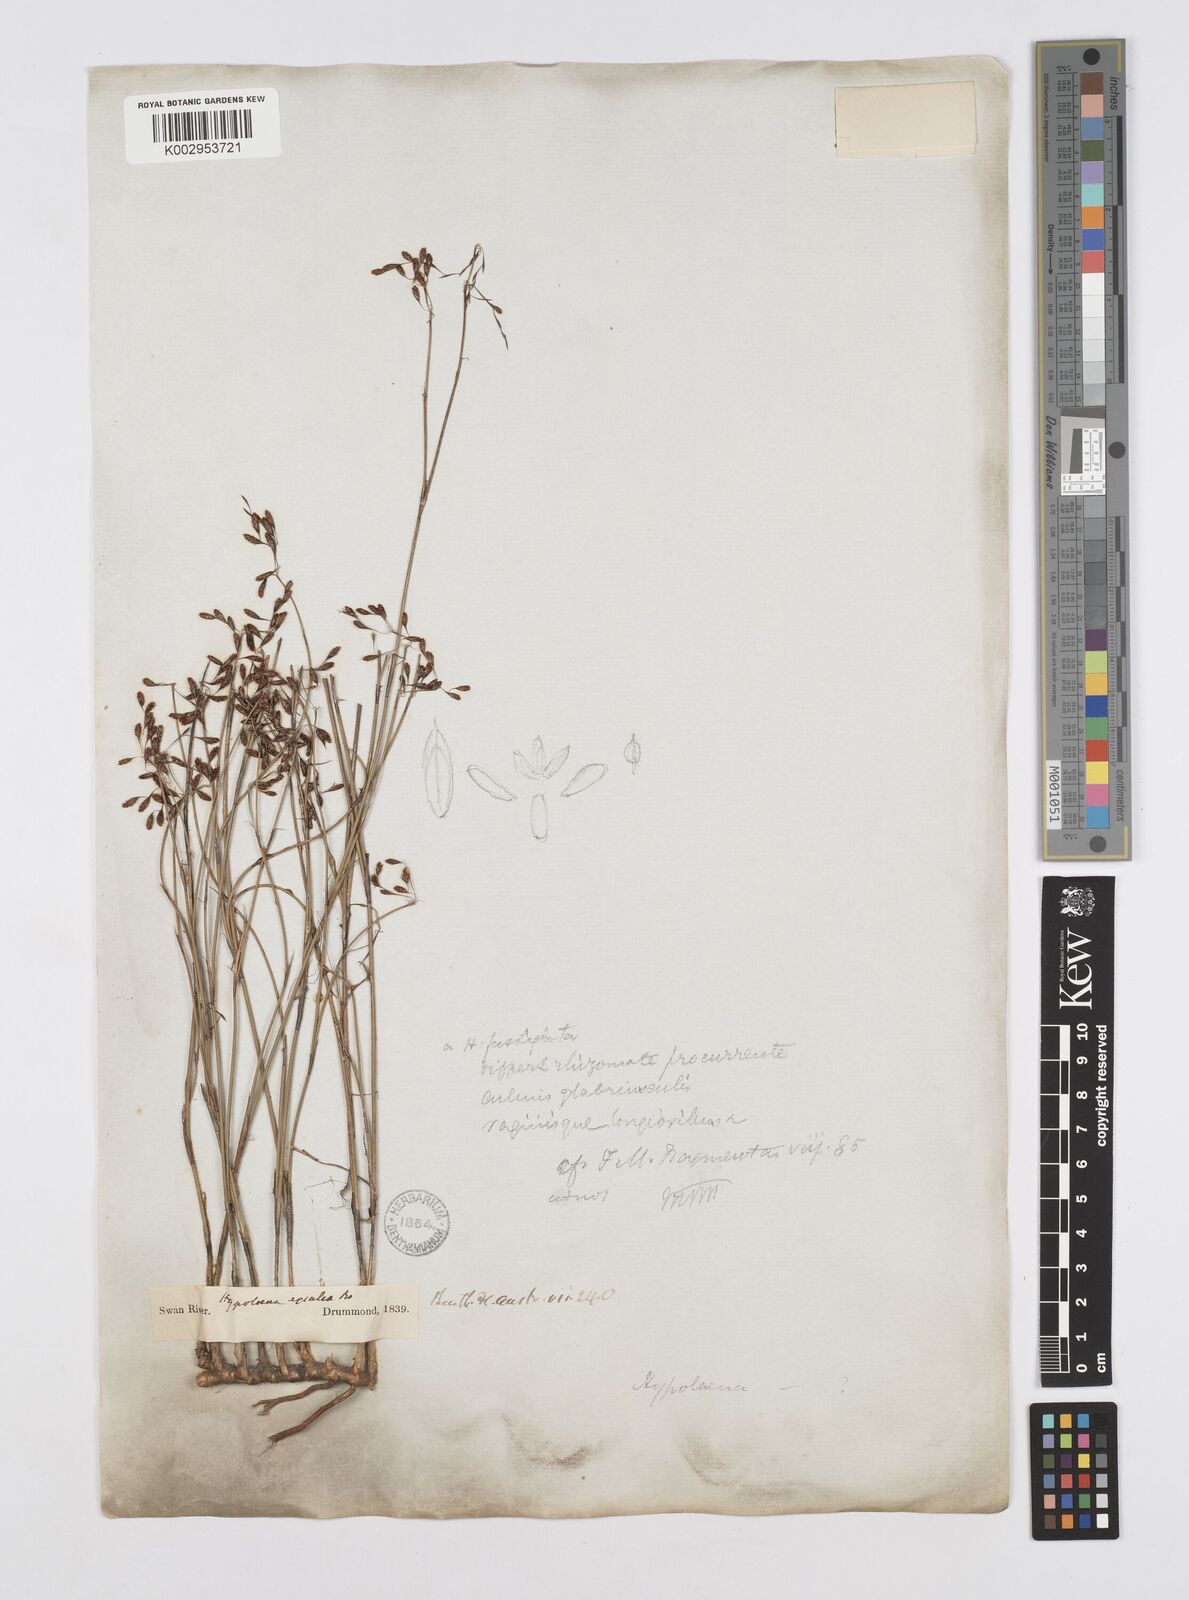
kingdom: Plantae
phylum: Tracheophyta
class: Liliopsida
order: Poales
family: Restionaceae
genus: Hypolaena
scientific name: Hypolaena exsulca
